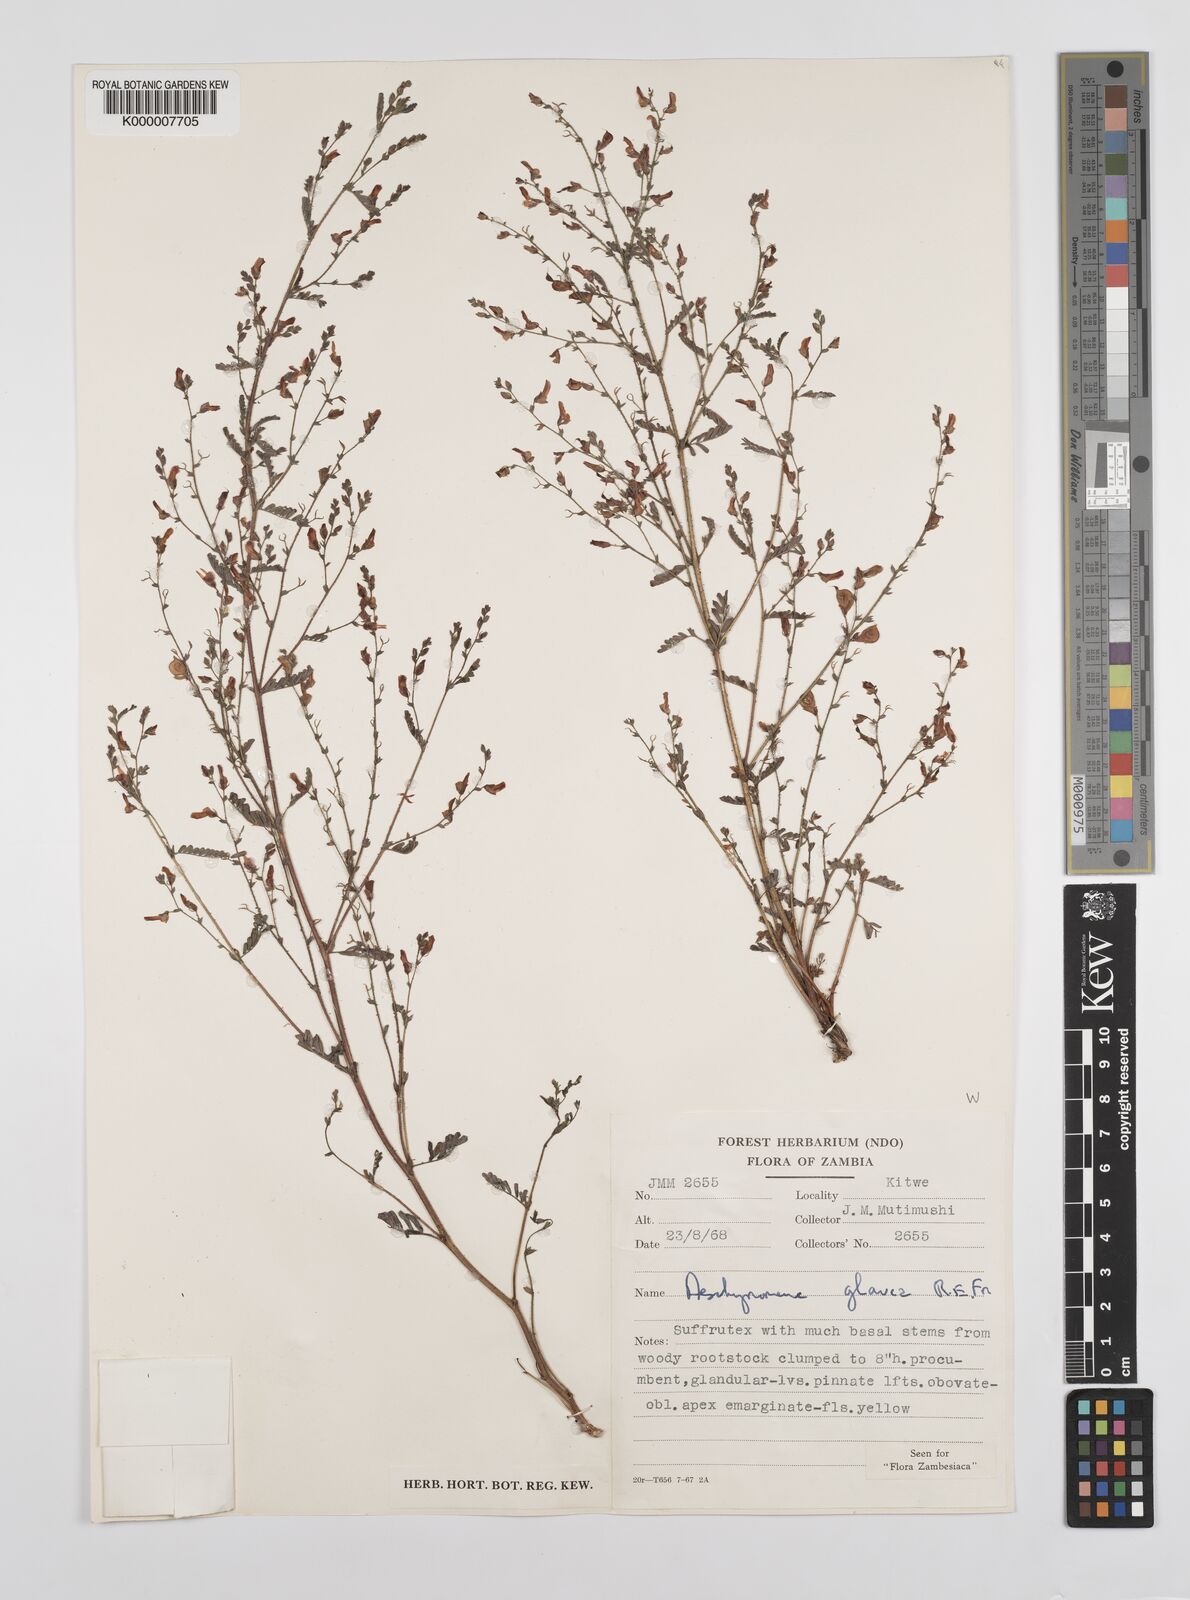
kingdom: Plantae
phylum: Tracheophyta
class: Magnoliopsida
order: Fabales
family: Fabaceae
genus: Aeschynomene
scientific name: Aeschynomene glauca
